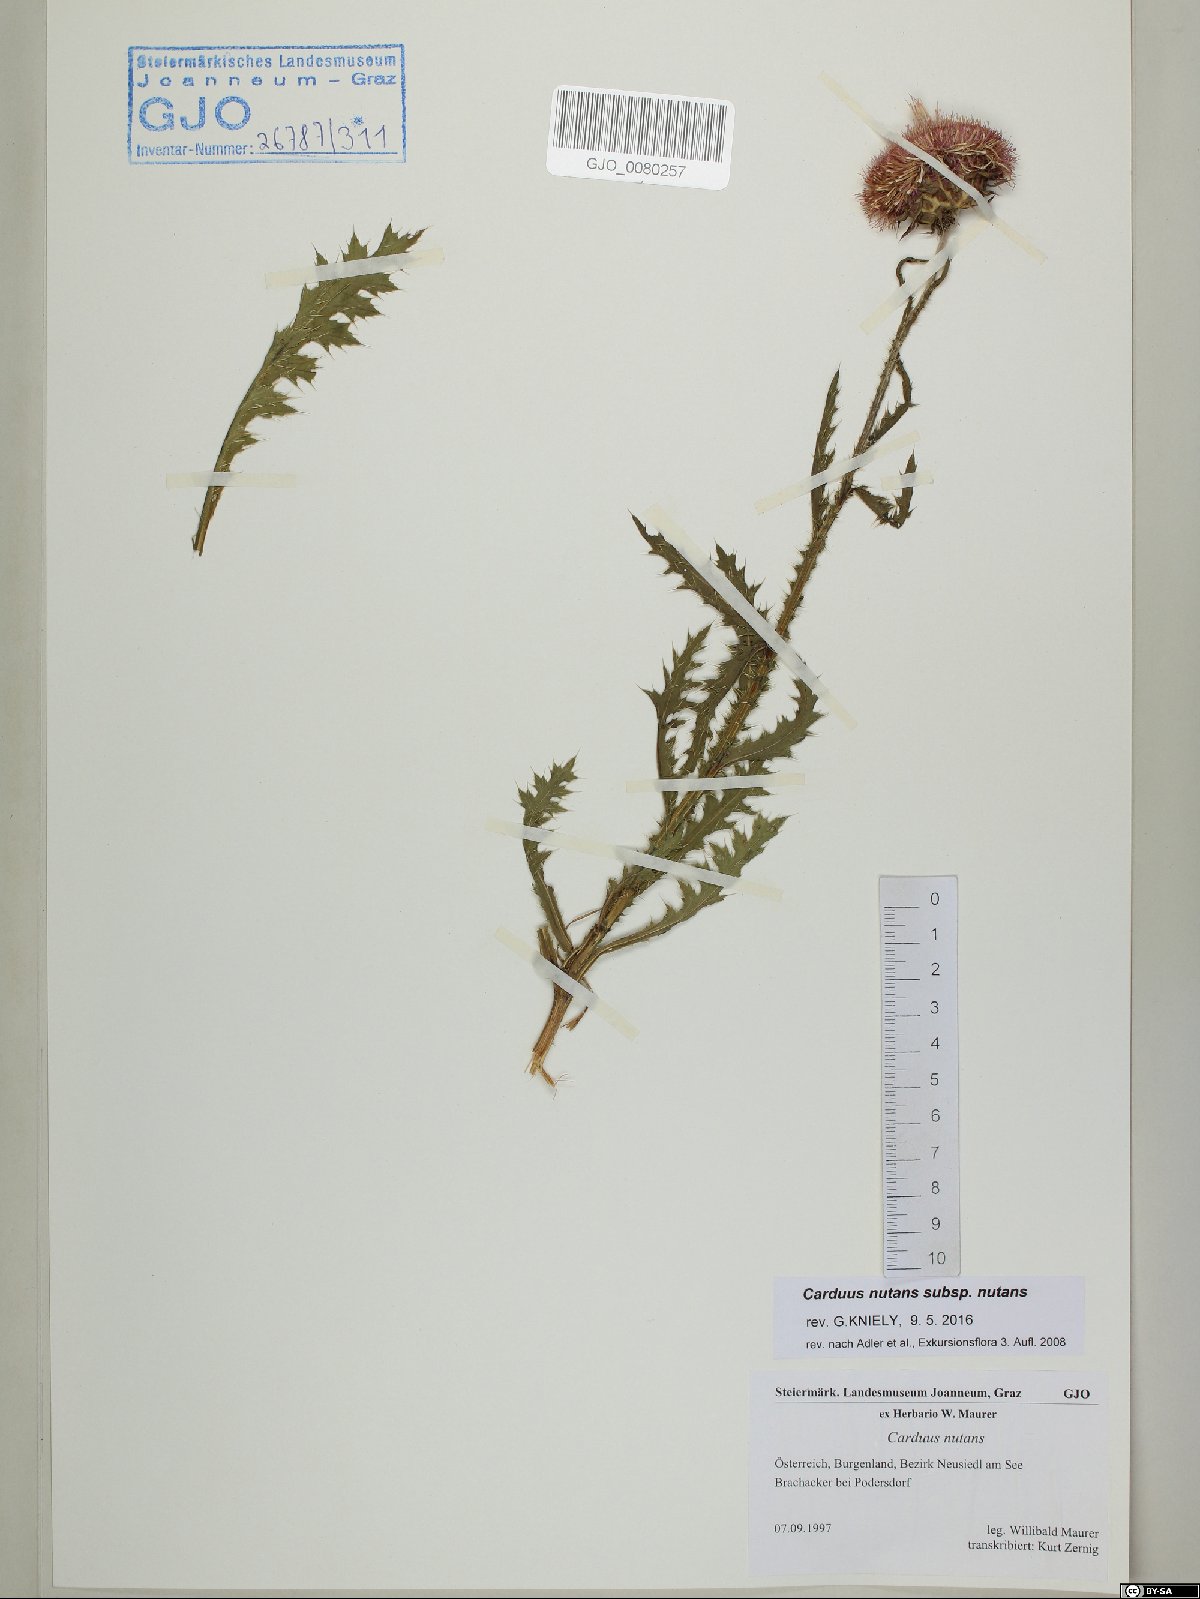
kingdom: Plantae
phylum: Tracheophyta
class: Magnoliopsida
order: Asterales
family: Asteraceae
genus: Carduus
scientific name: Carduus nutans
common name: Musk thistle
